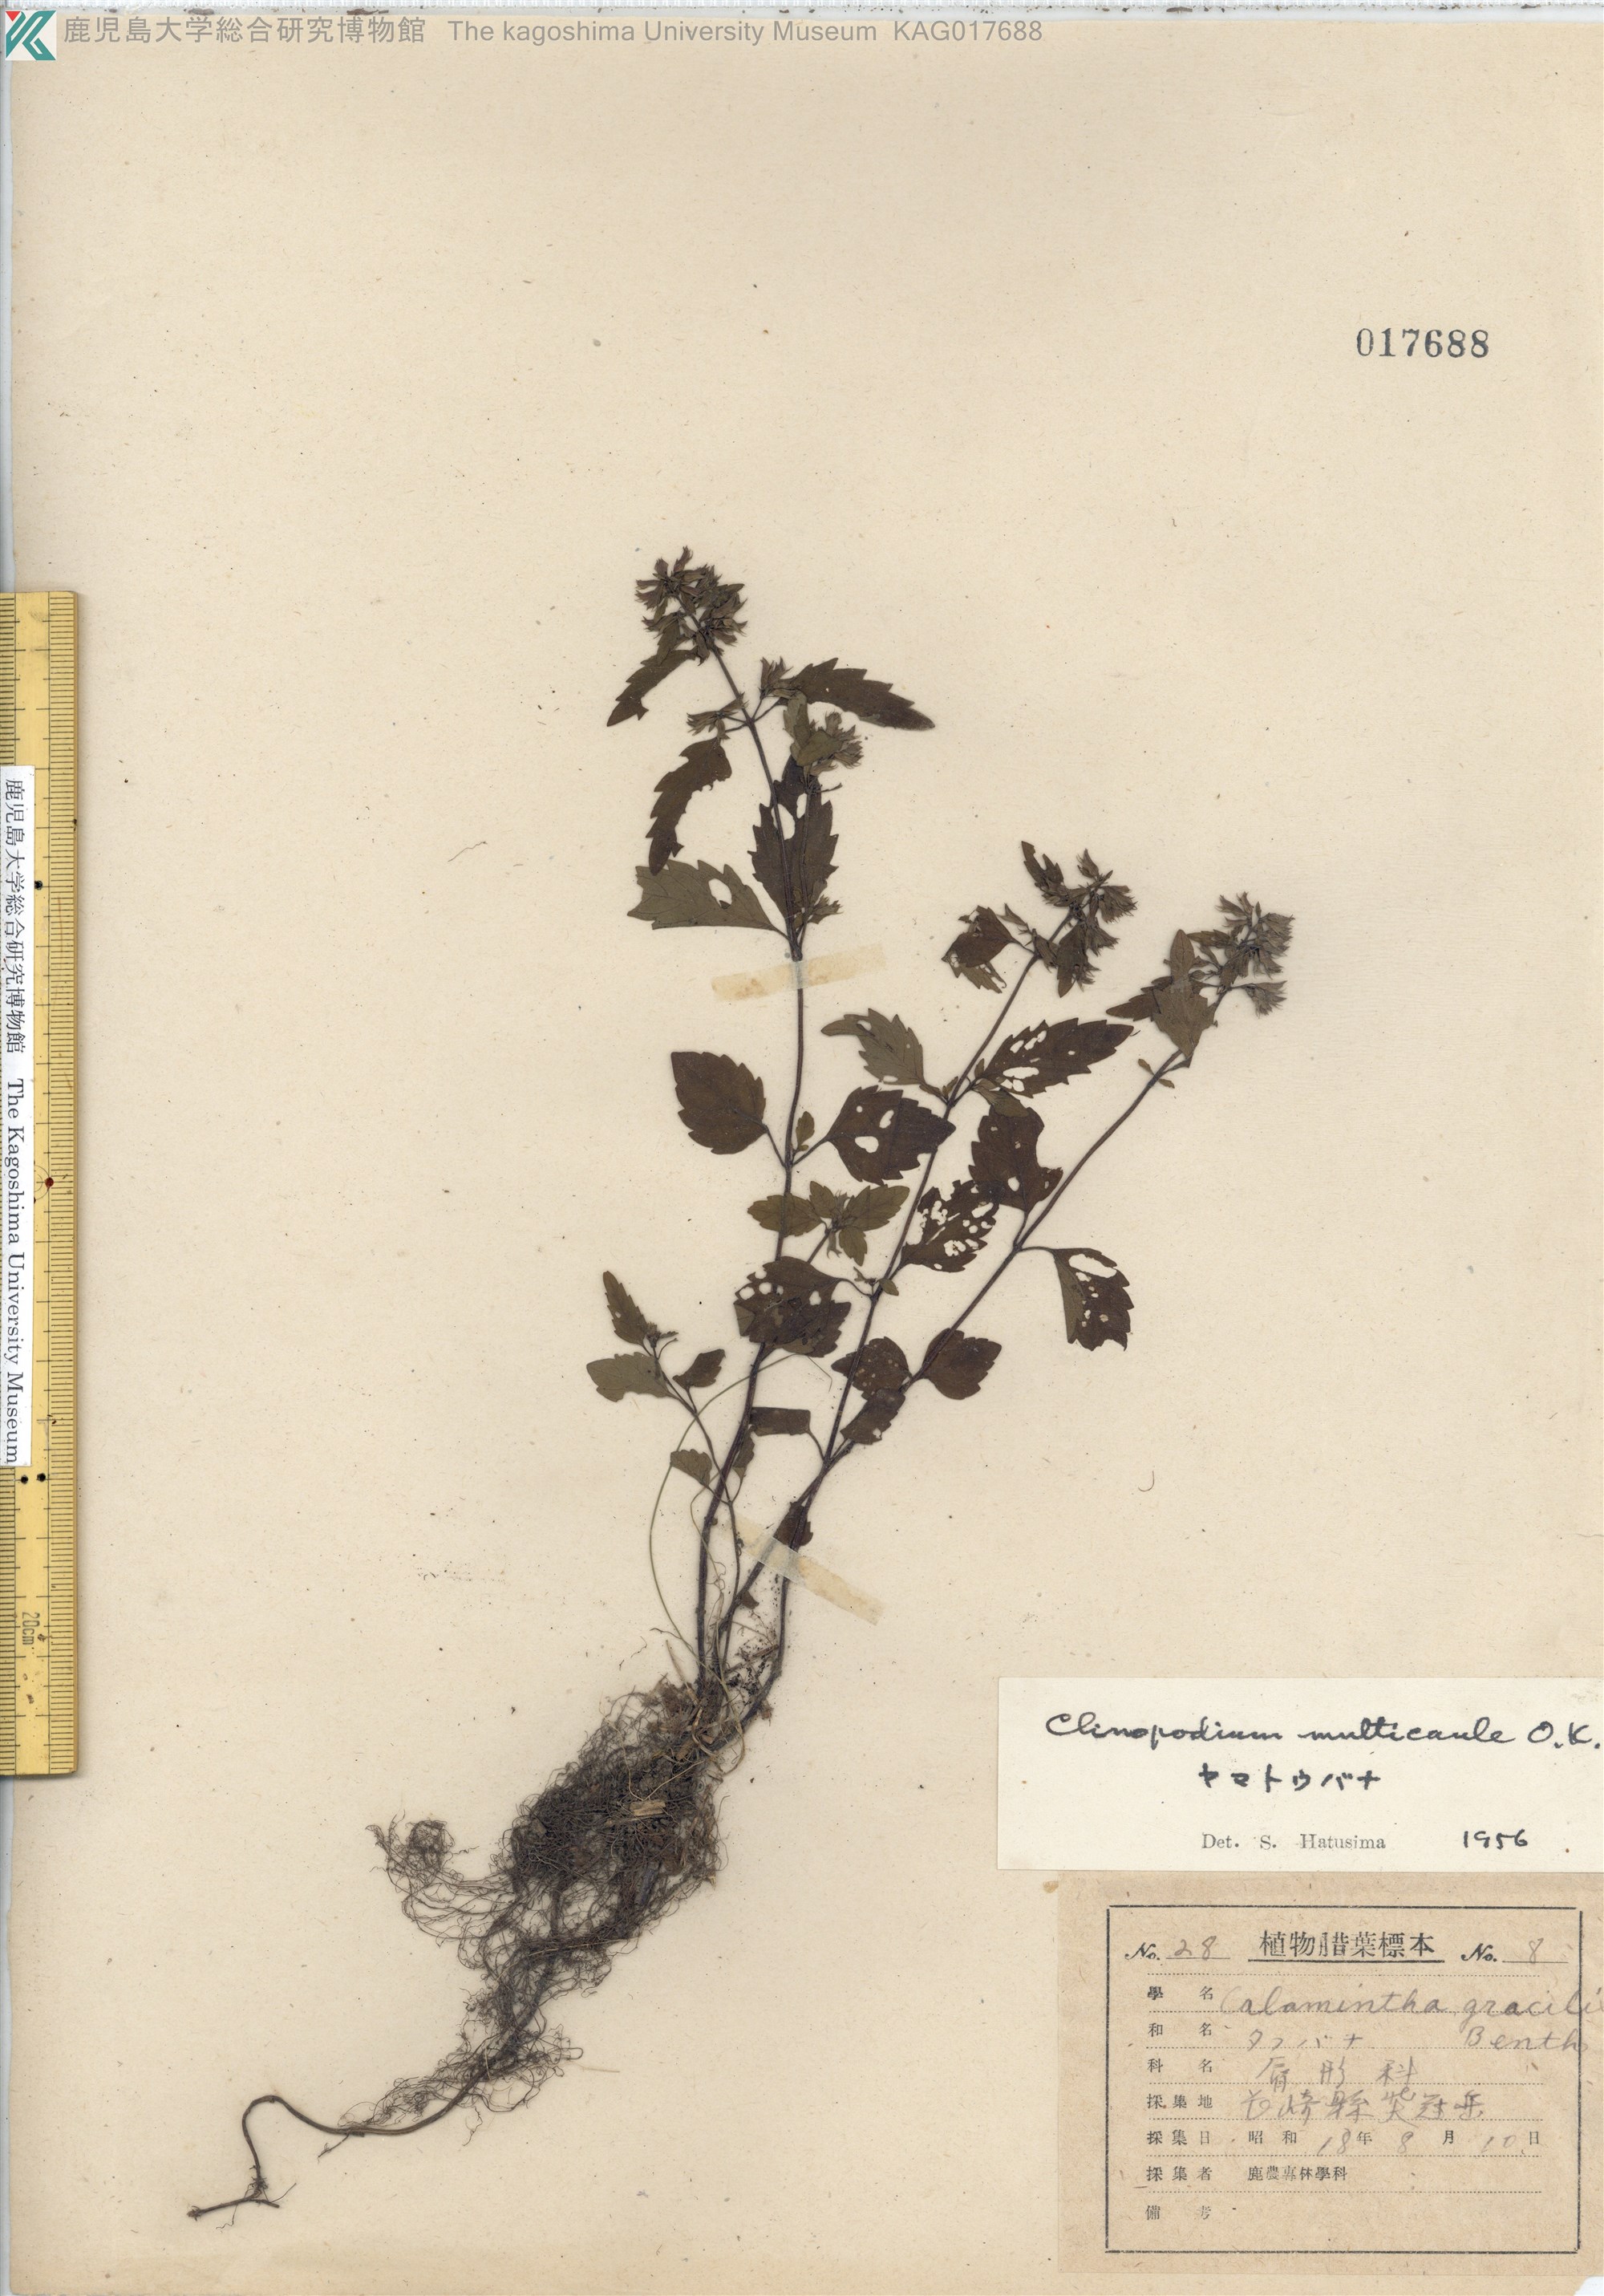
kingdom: Plantae
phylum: Tracheophyta
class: Magnoliopsida
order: Lamiales
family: Lamiaceae
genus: Clinopodium
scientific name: Clinopodium multicaule
